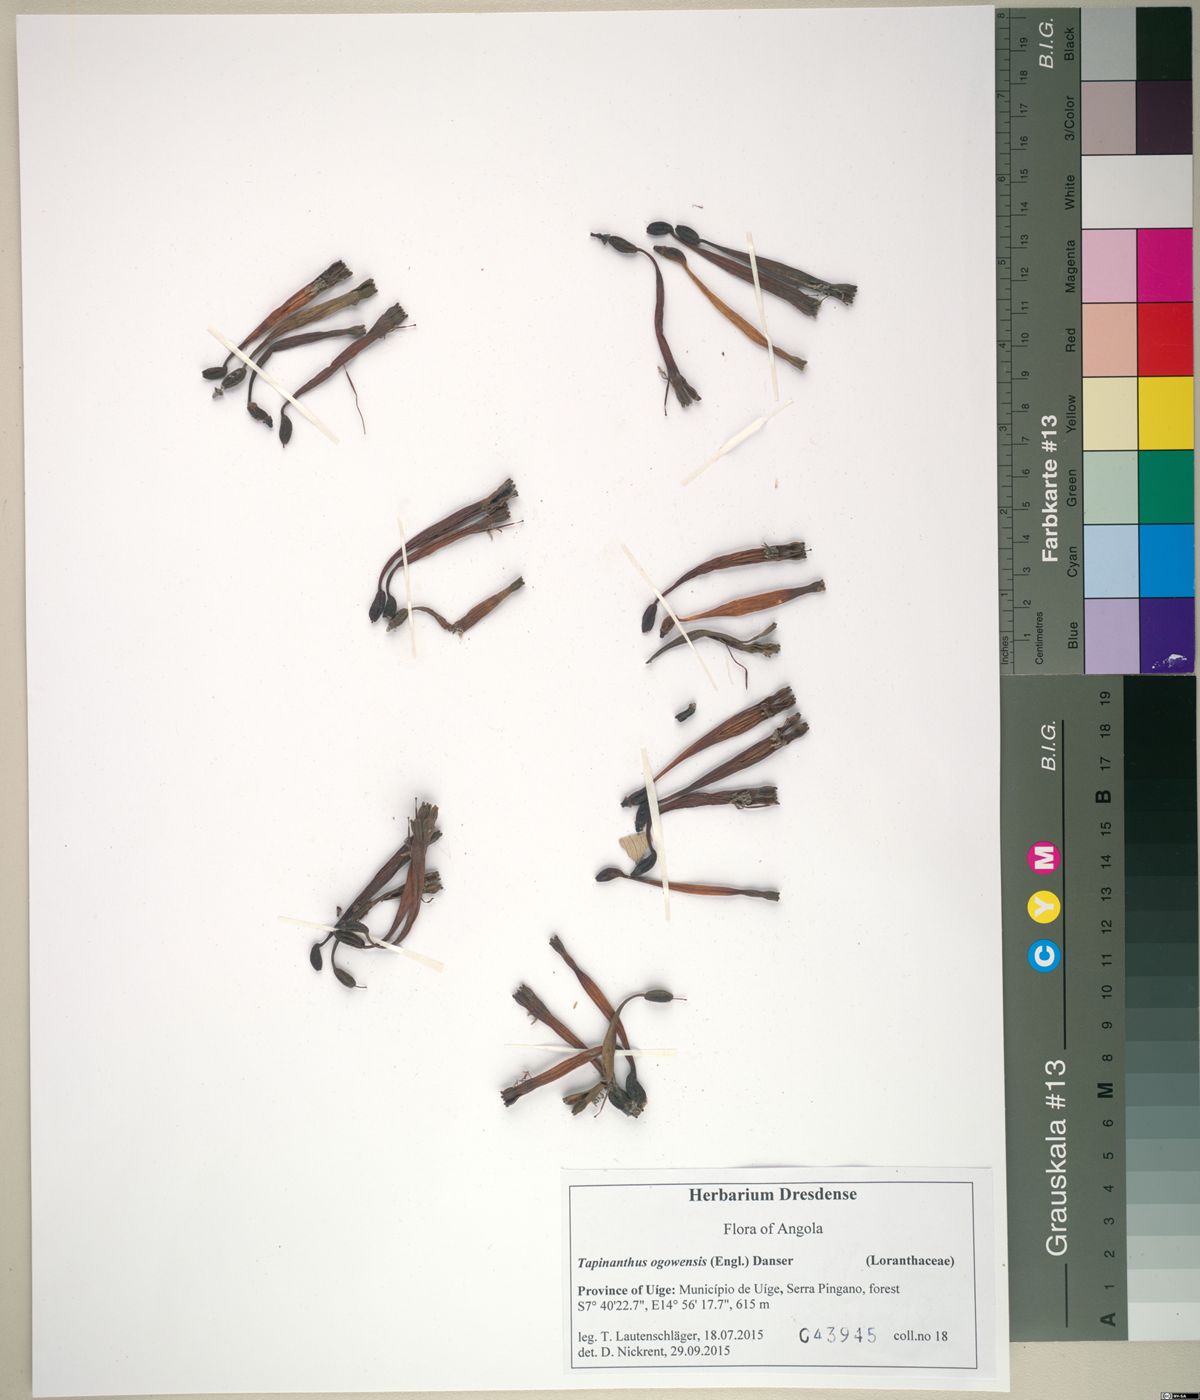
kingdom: Plantae
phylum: Tracheophyta
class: Magnoliopsida
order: Santalales
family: Loranthaceae
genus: Tapinanthus
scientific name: Tapinanthus ogowensis
